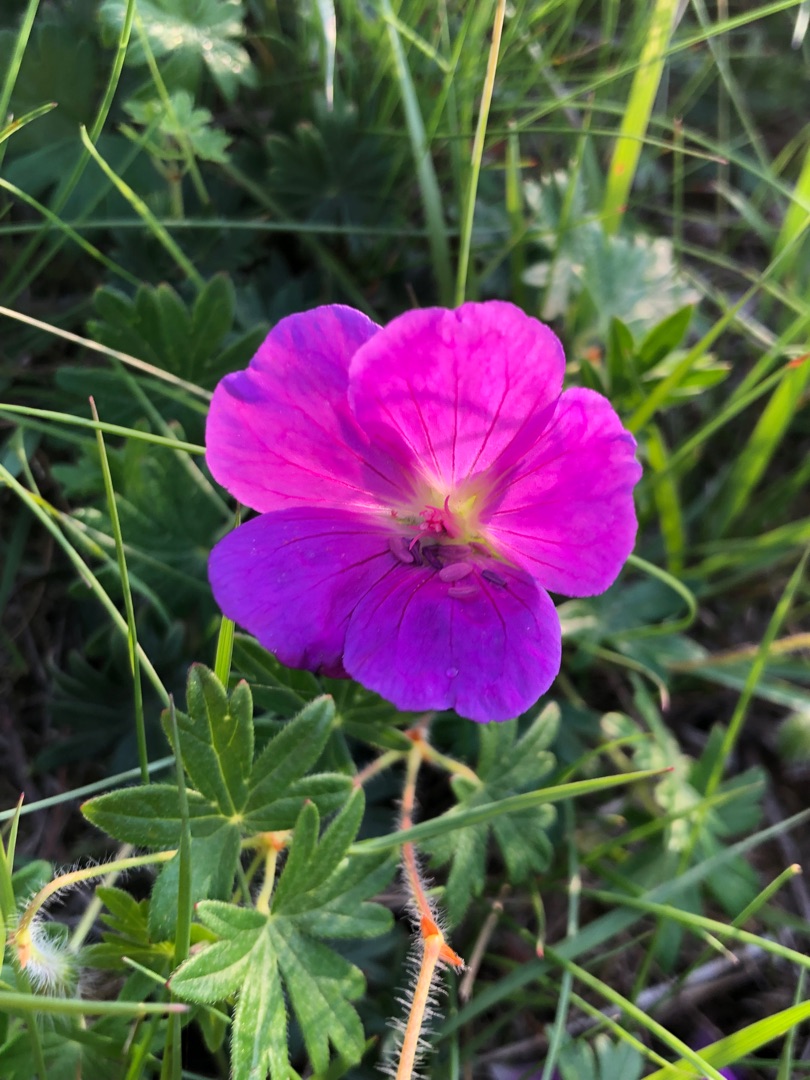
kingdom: Plantae
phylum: Tracheophyta
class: Magnoliopsida
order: Geraniales
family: Geraniaceae
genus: Geranium
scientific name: Geranium sanguineum
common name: Blodrød storkenæb
